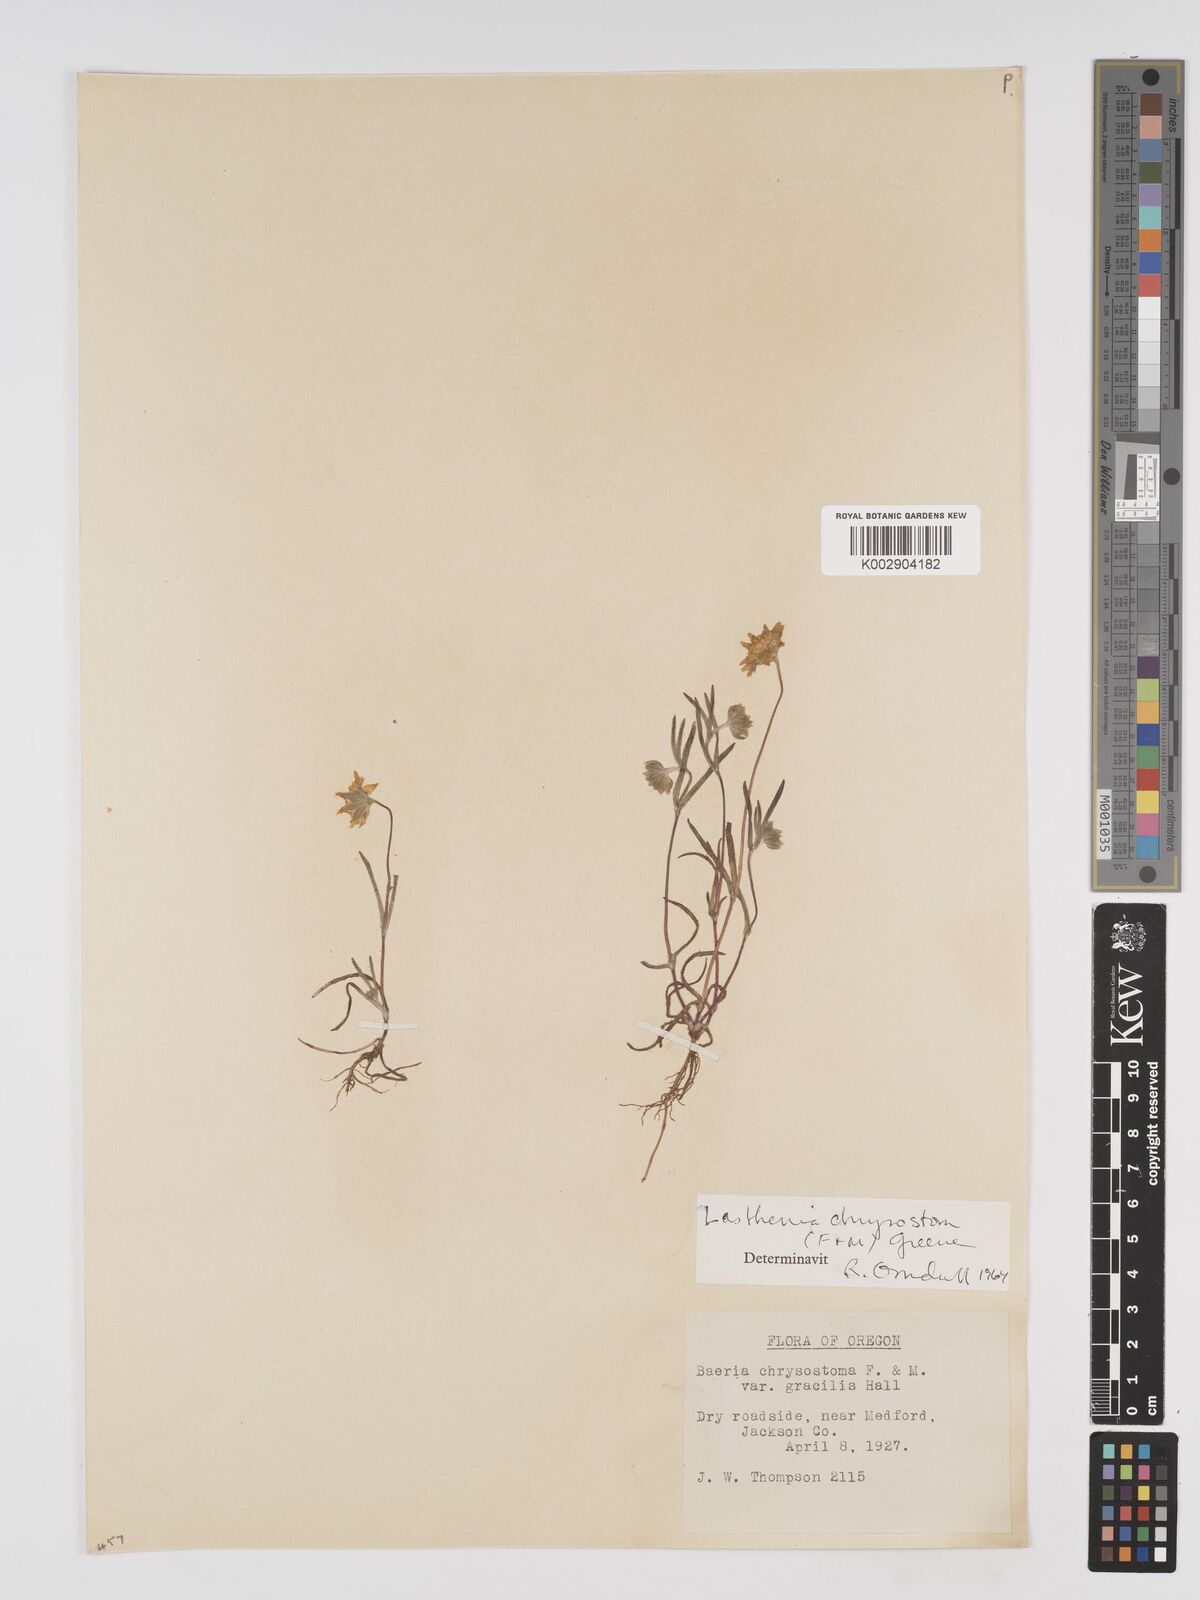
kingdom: Plantae
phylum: Tracheophyta
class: Magnoliopsida
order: Asterales
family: Asteraceae
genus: Lasthenia
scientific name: Lasthenia californica
